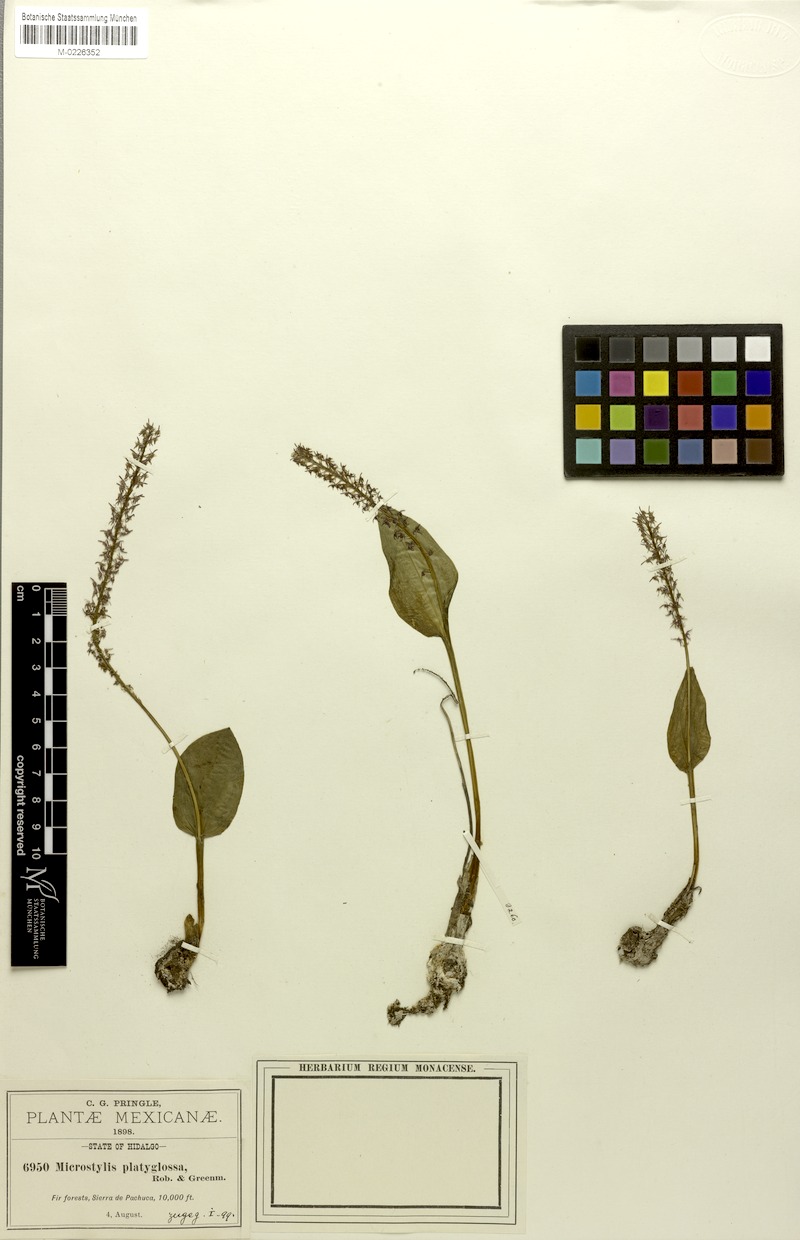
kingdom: Plantae
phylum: Tracheophyta
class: Liliopsida
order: Asparagales
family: Orchidaceae
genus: Tamayorkis
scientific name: Tamayorkis ehrenbergii
